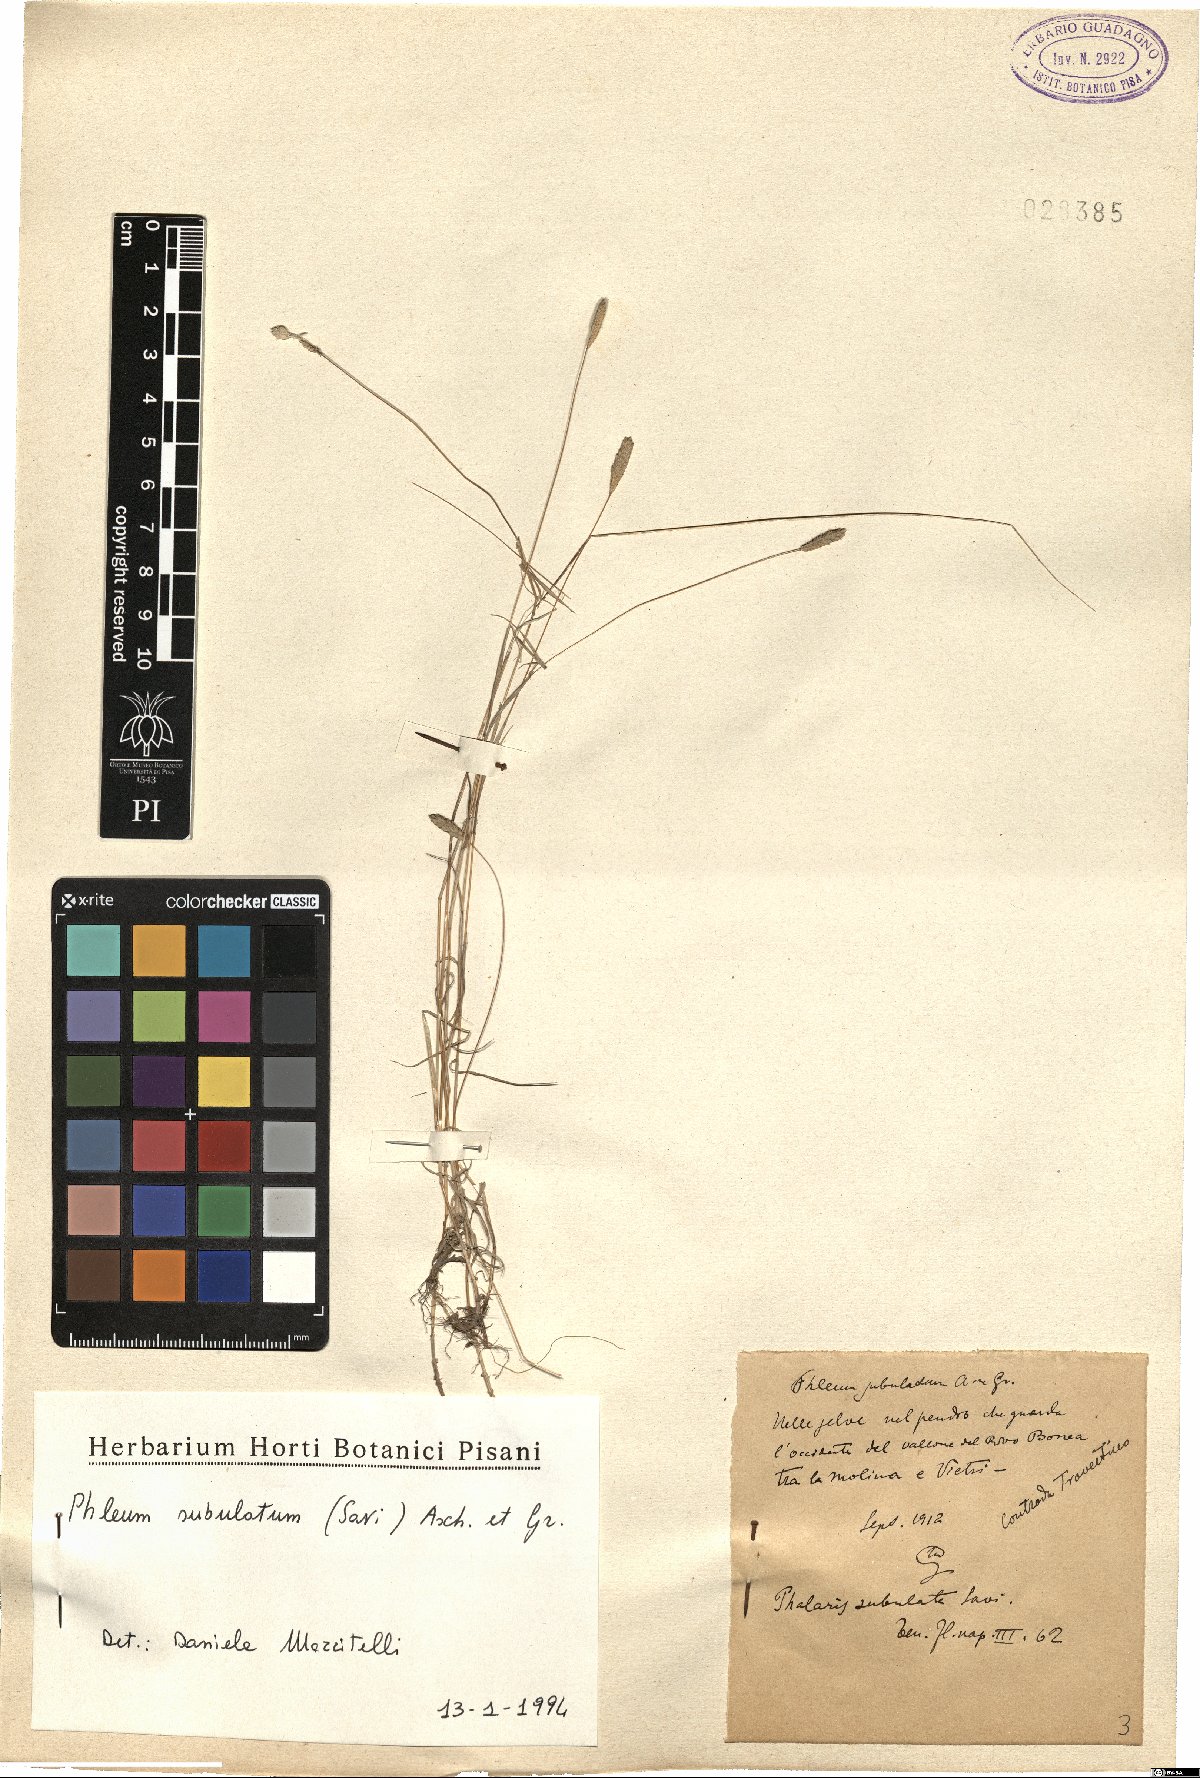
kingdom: Plantae
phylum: Tracheophyta
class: Liliopsida
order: Poales
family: Poaceae
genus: Phleum
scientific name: Phleum subulatum
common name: Italian timothy
